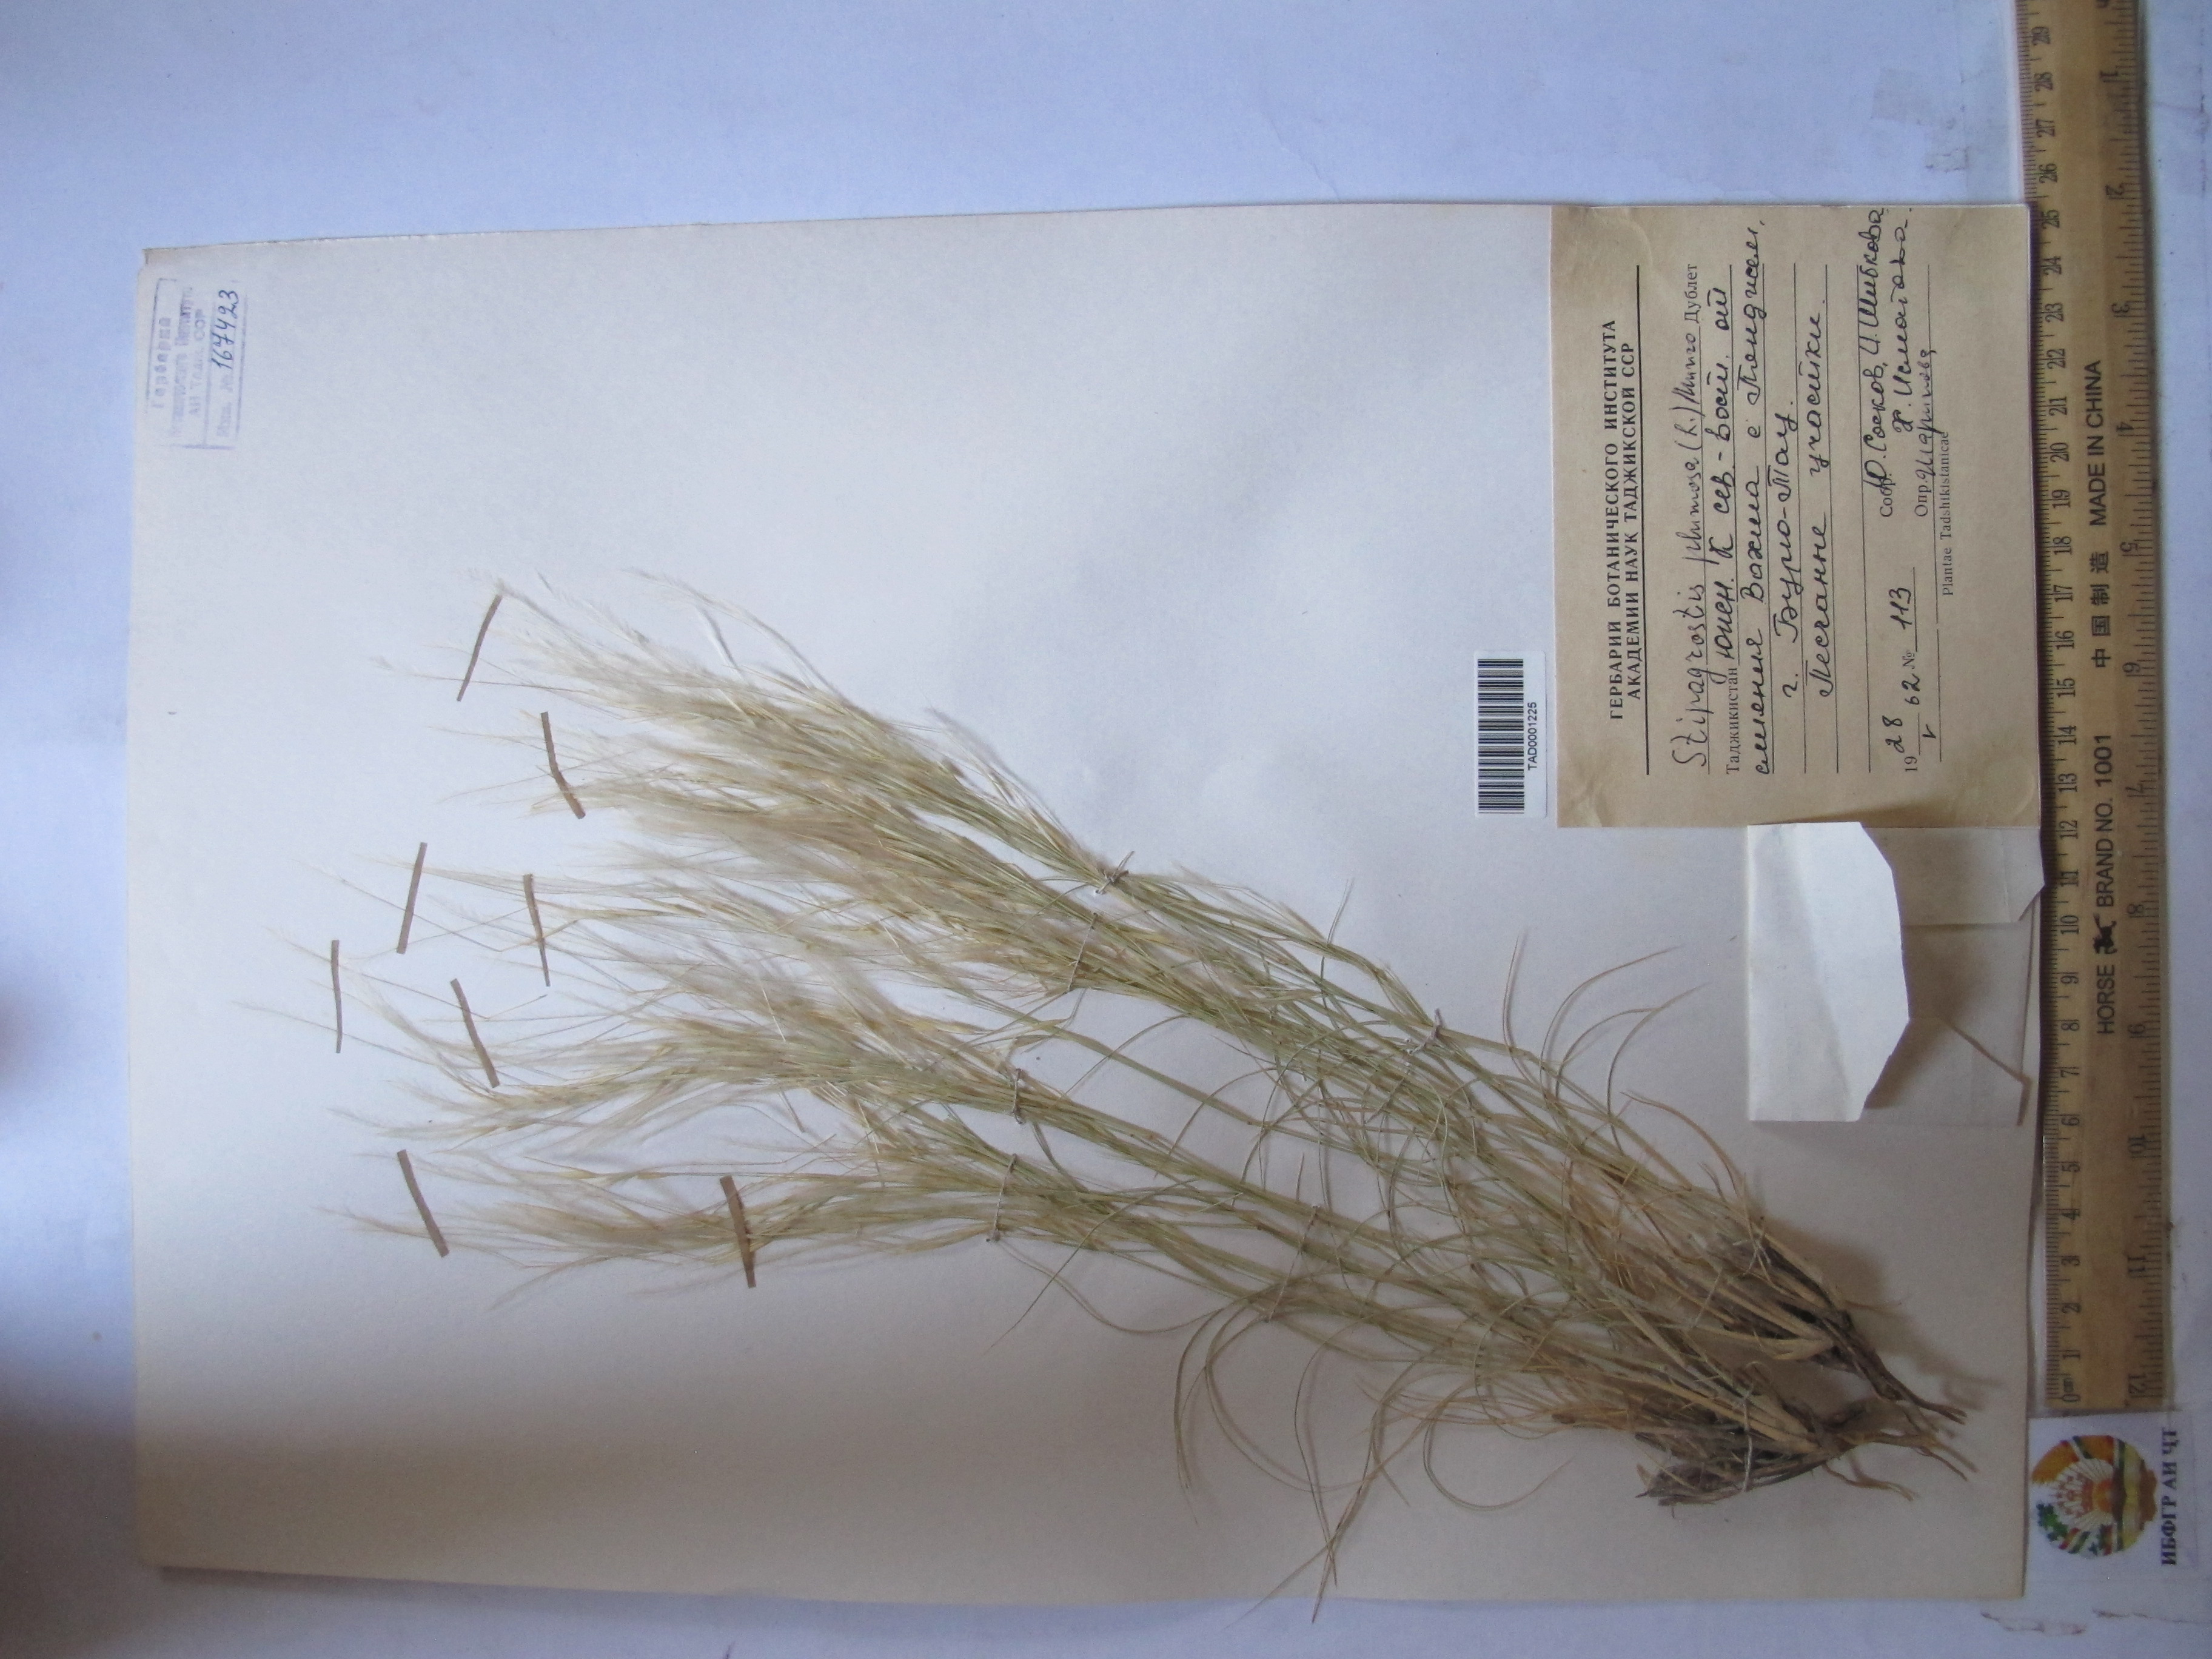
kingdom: Plantae
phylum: Tracheophyta
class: Liliopsida
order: Poales
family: Poaceae
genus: Stipagrostis
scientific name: Stipagrostis plumosa
